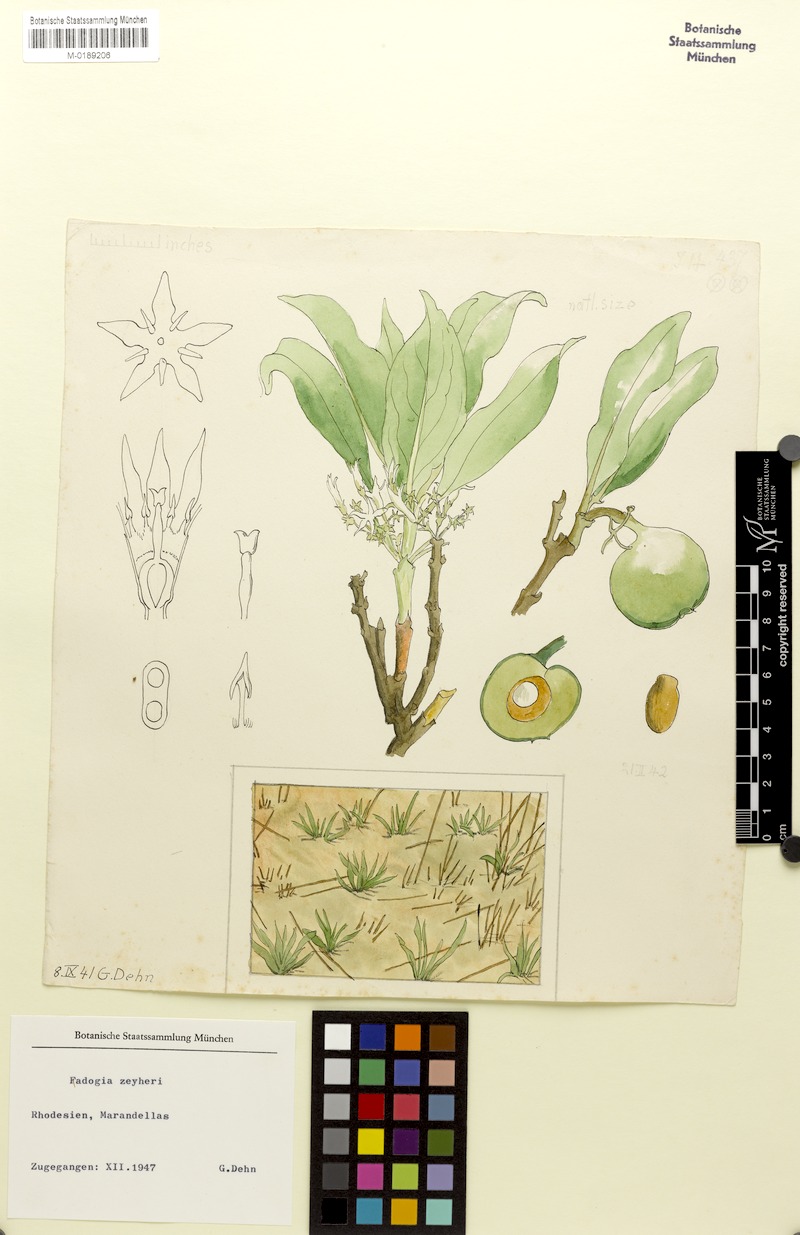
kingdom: Plantae
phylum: Tracheophyta
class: Magnoliopsida
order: Gentianales
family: Rubiaceae
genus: Pygmaeothamnus
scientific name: Pygmaeothamnus zeyheri
